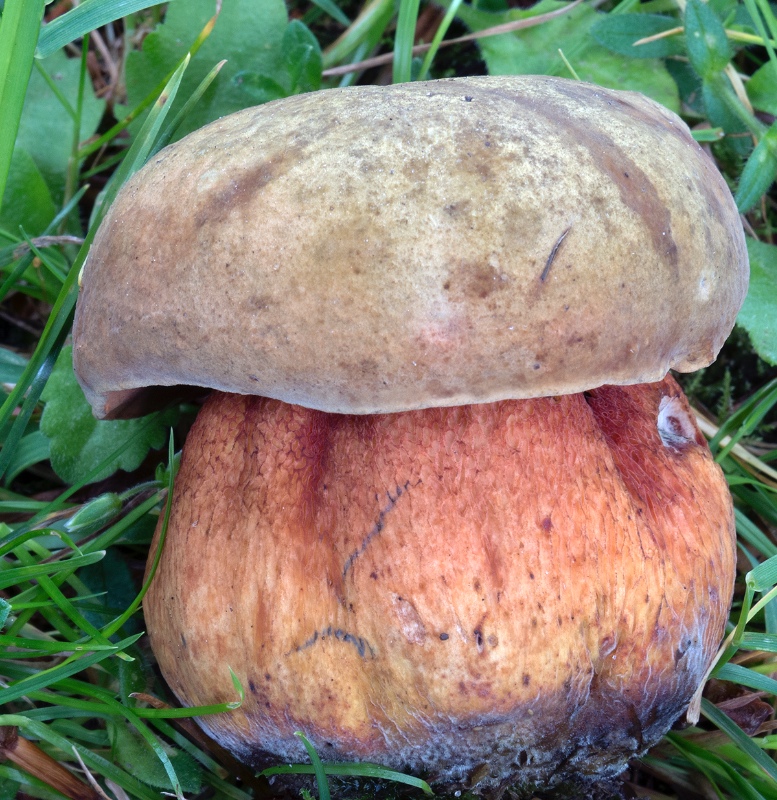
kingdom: Fungi
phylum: Basidiomycota
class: Agaricomycetes
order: Boletales
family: Boletaceae
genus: Suillellus
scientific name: Suillellus luridus
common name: netstokket indigorørhat
